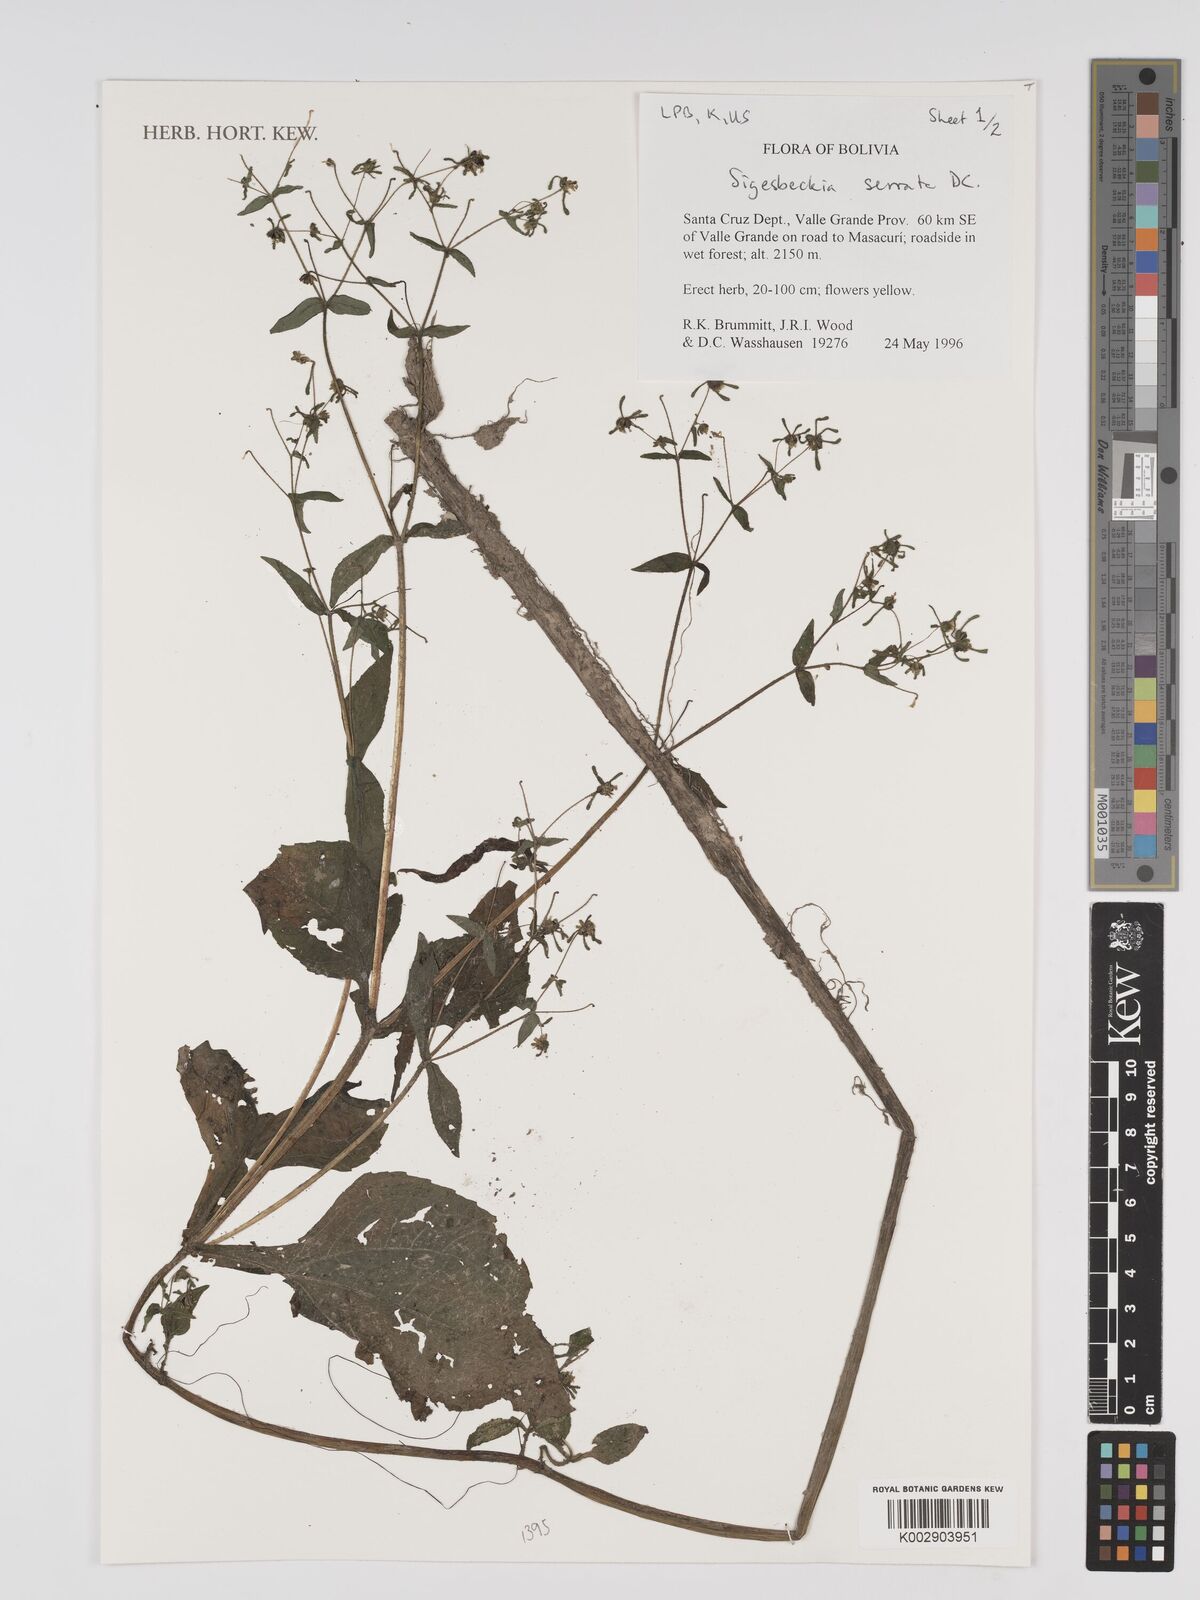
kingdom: Plantae
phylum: Tracheophyta
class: Magnoliopsida
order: Asterales
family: Asteraceae
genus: Sigesbeckia
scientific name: Sigesbeckia jorullensis
